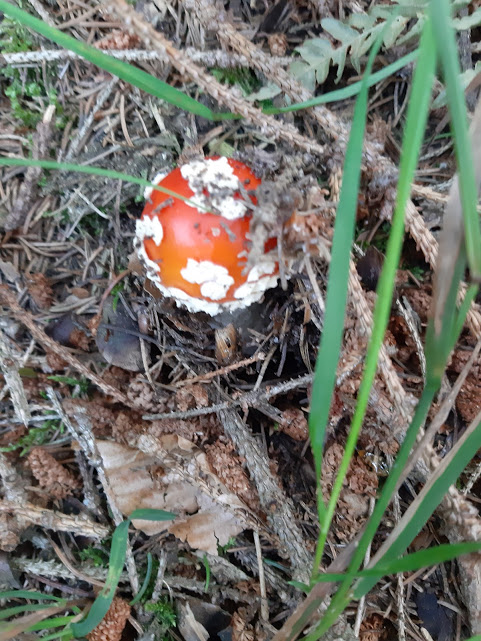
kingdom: Fungi
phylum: Basidiomycota
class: Agaricomycetes
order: Agaricales
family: Amanitaceae
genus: Amanita
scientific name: Amanita muscaria
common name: rød fluesvamp
